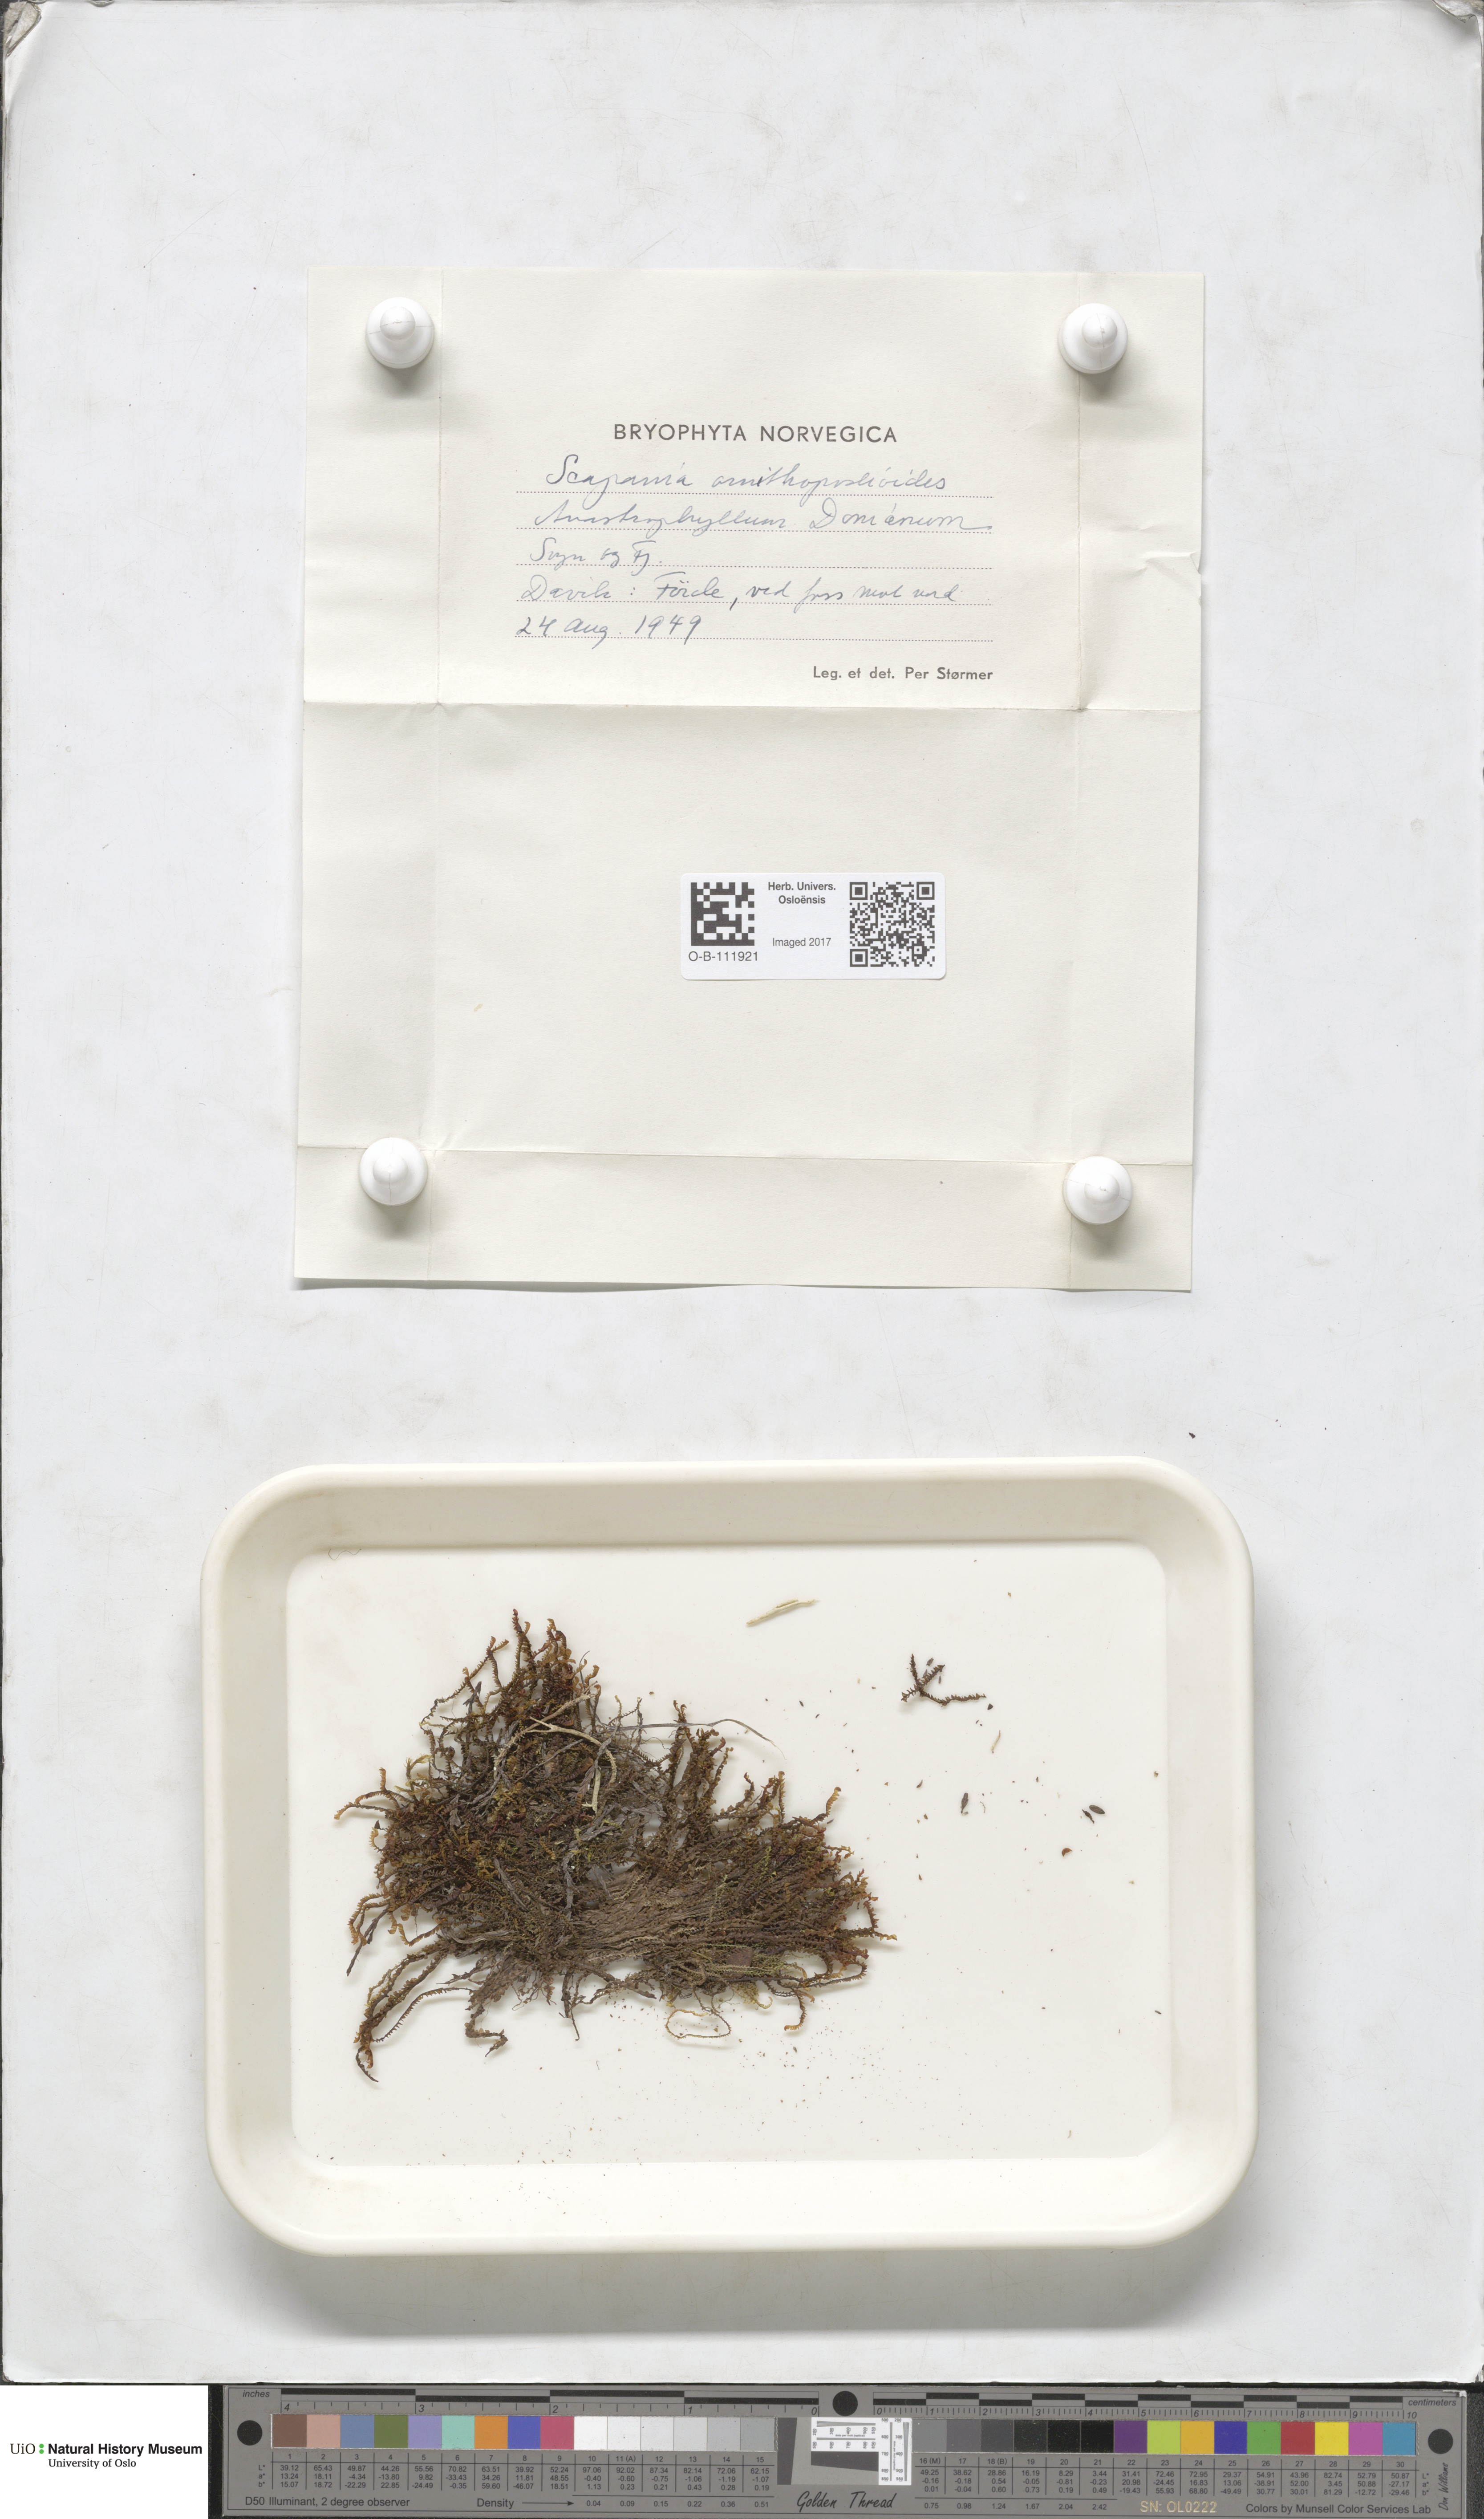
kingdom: Plantae
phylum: Marchantiophyta
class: Jungermanniopsida
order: Jungermanniales
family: Scapaniaceae
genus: Scapania
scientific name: Scapania ornithopodioides
